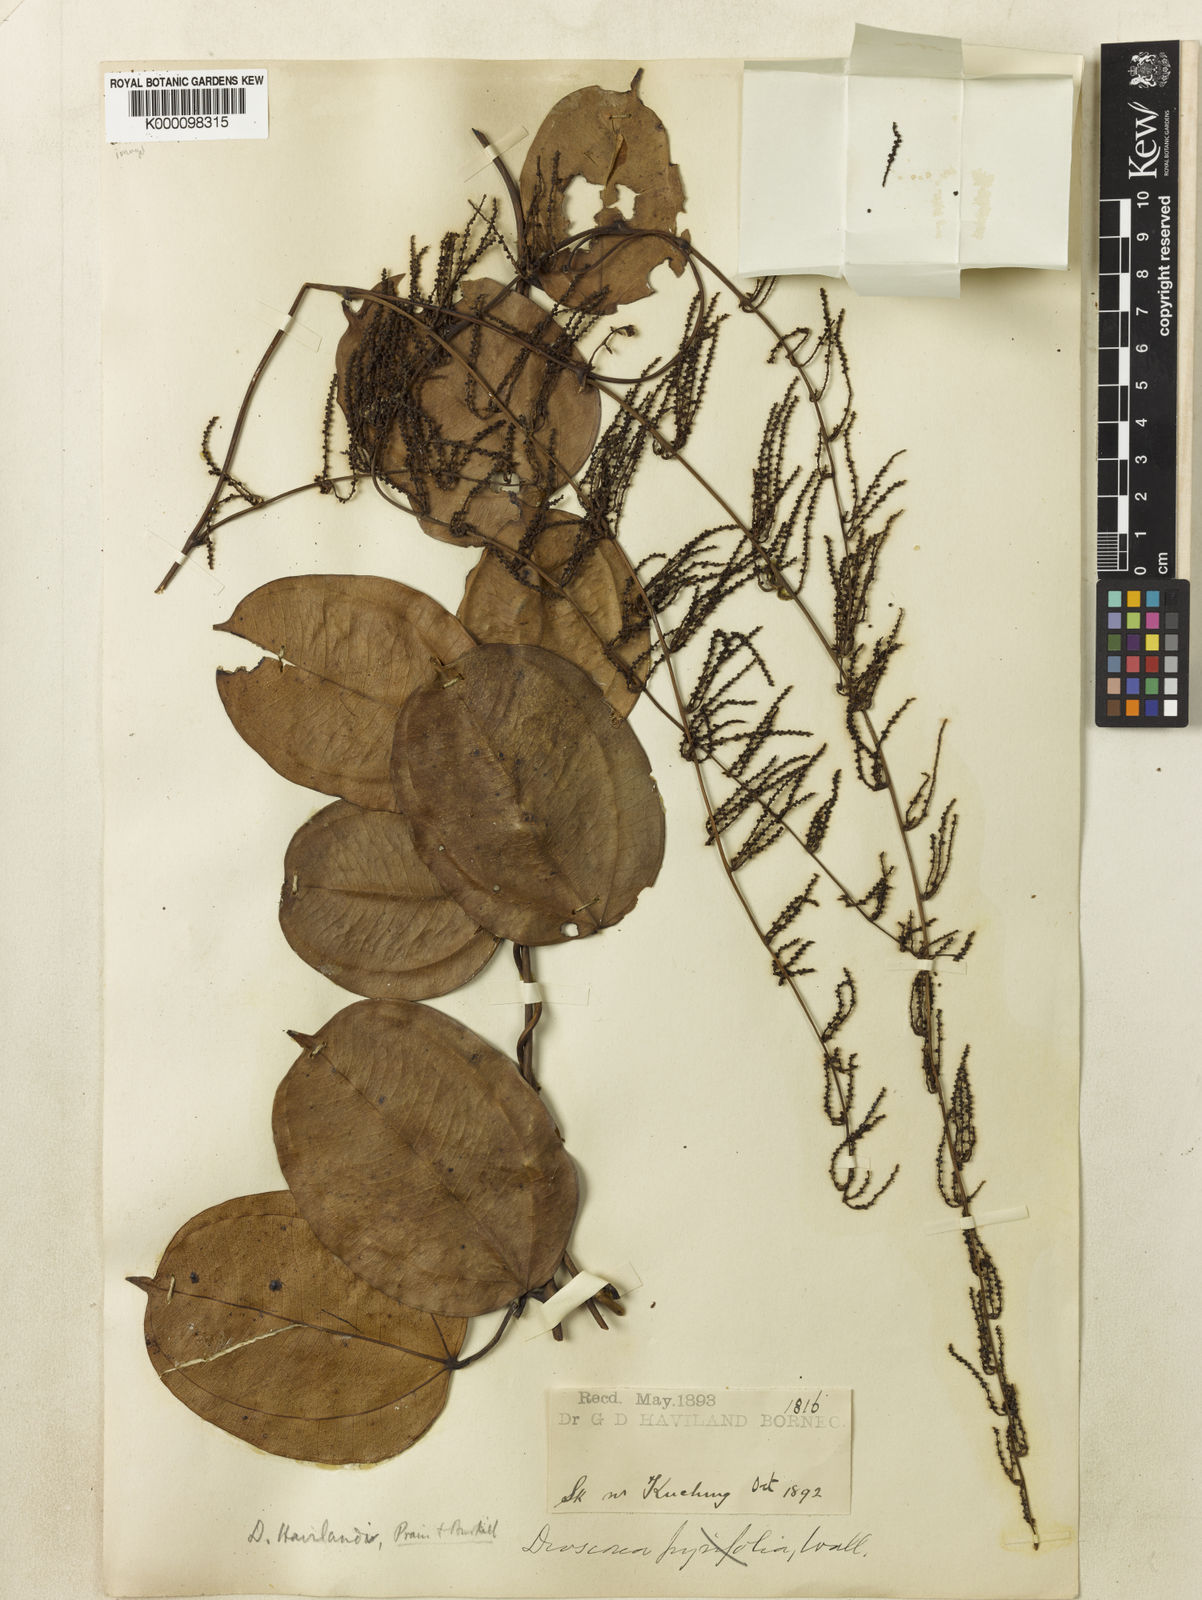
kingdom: Plantae
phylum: Tracheophyta
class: Liliopsida
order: Dioscoreales
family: Dioscoreaceae
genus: Dioscorea
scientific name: Dioscorea havilandii
